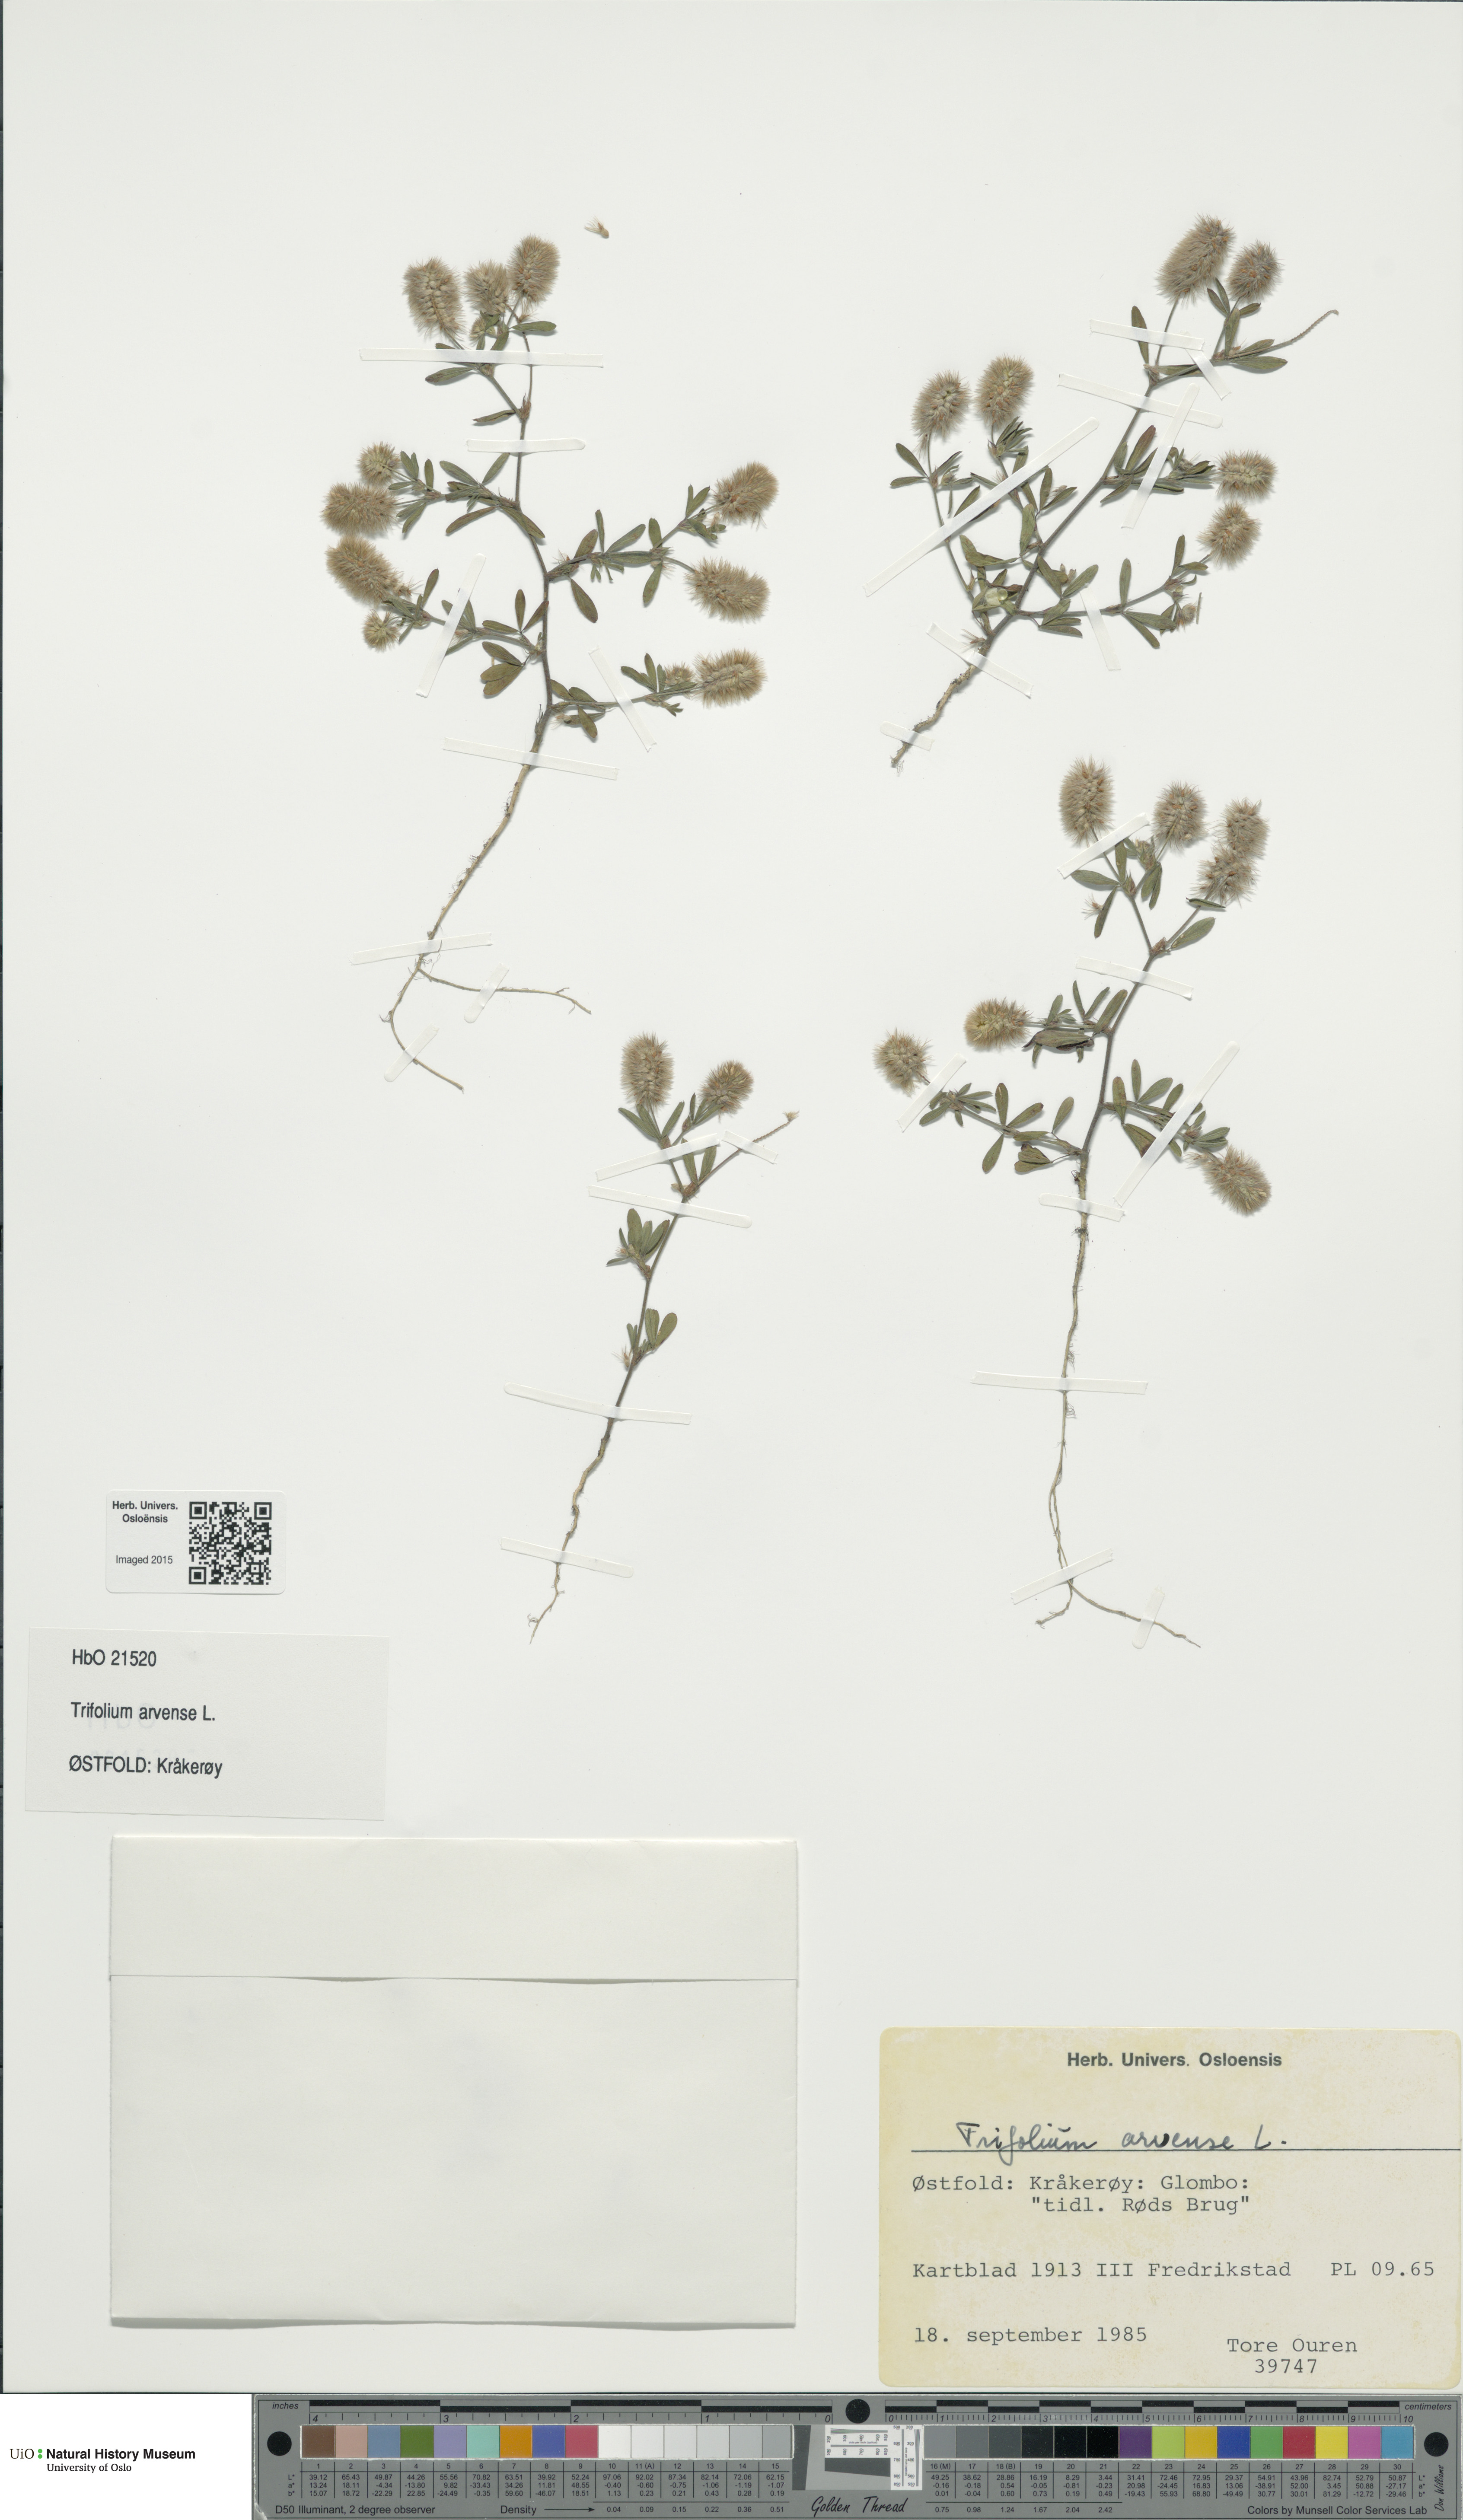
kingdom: Plantae
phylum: Tracheophyta
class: Magnoliopsida
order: Fabales
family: Fabaceae
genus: Trifolium
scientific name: Trifolium arvense
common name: Hare's-foot clover
